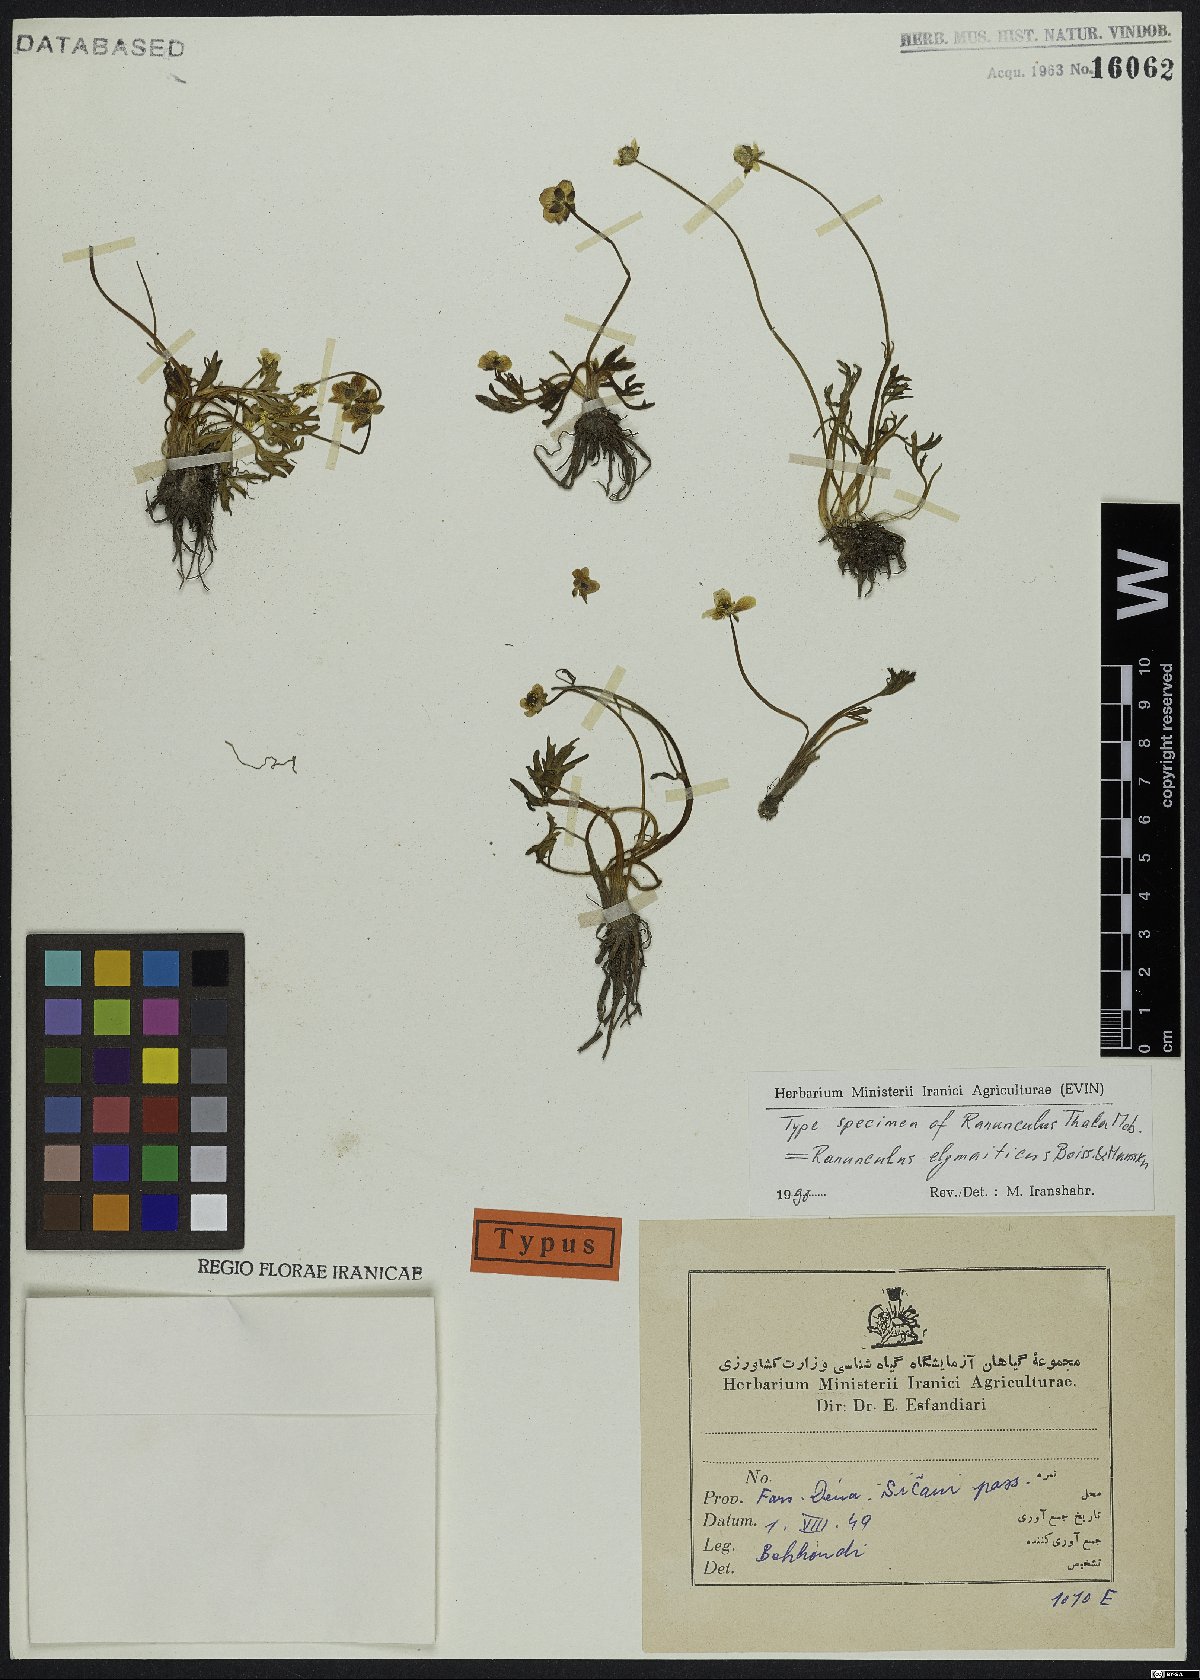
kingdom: Plantae
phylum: Tracheophyta
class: Magnoliopsida
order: Ranunculales
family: Ranunculaceae
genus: Ranunculus
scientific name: Ranunculus elymaiticus
